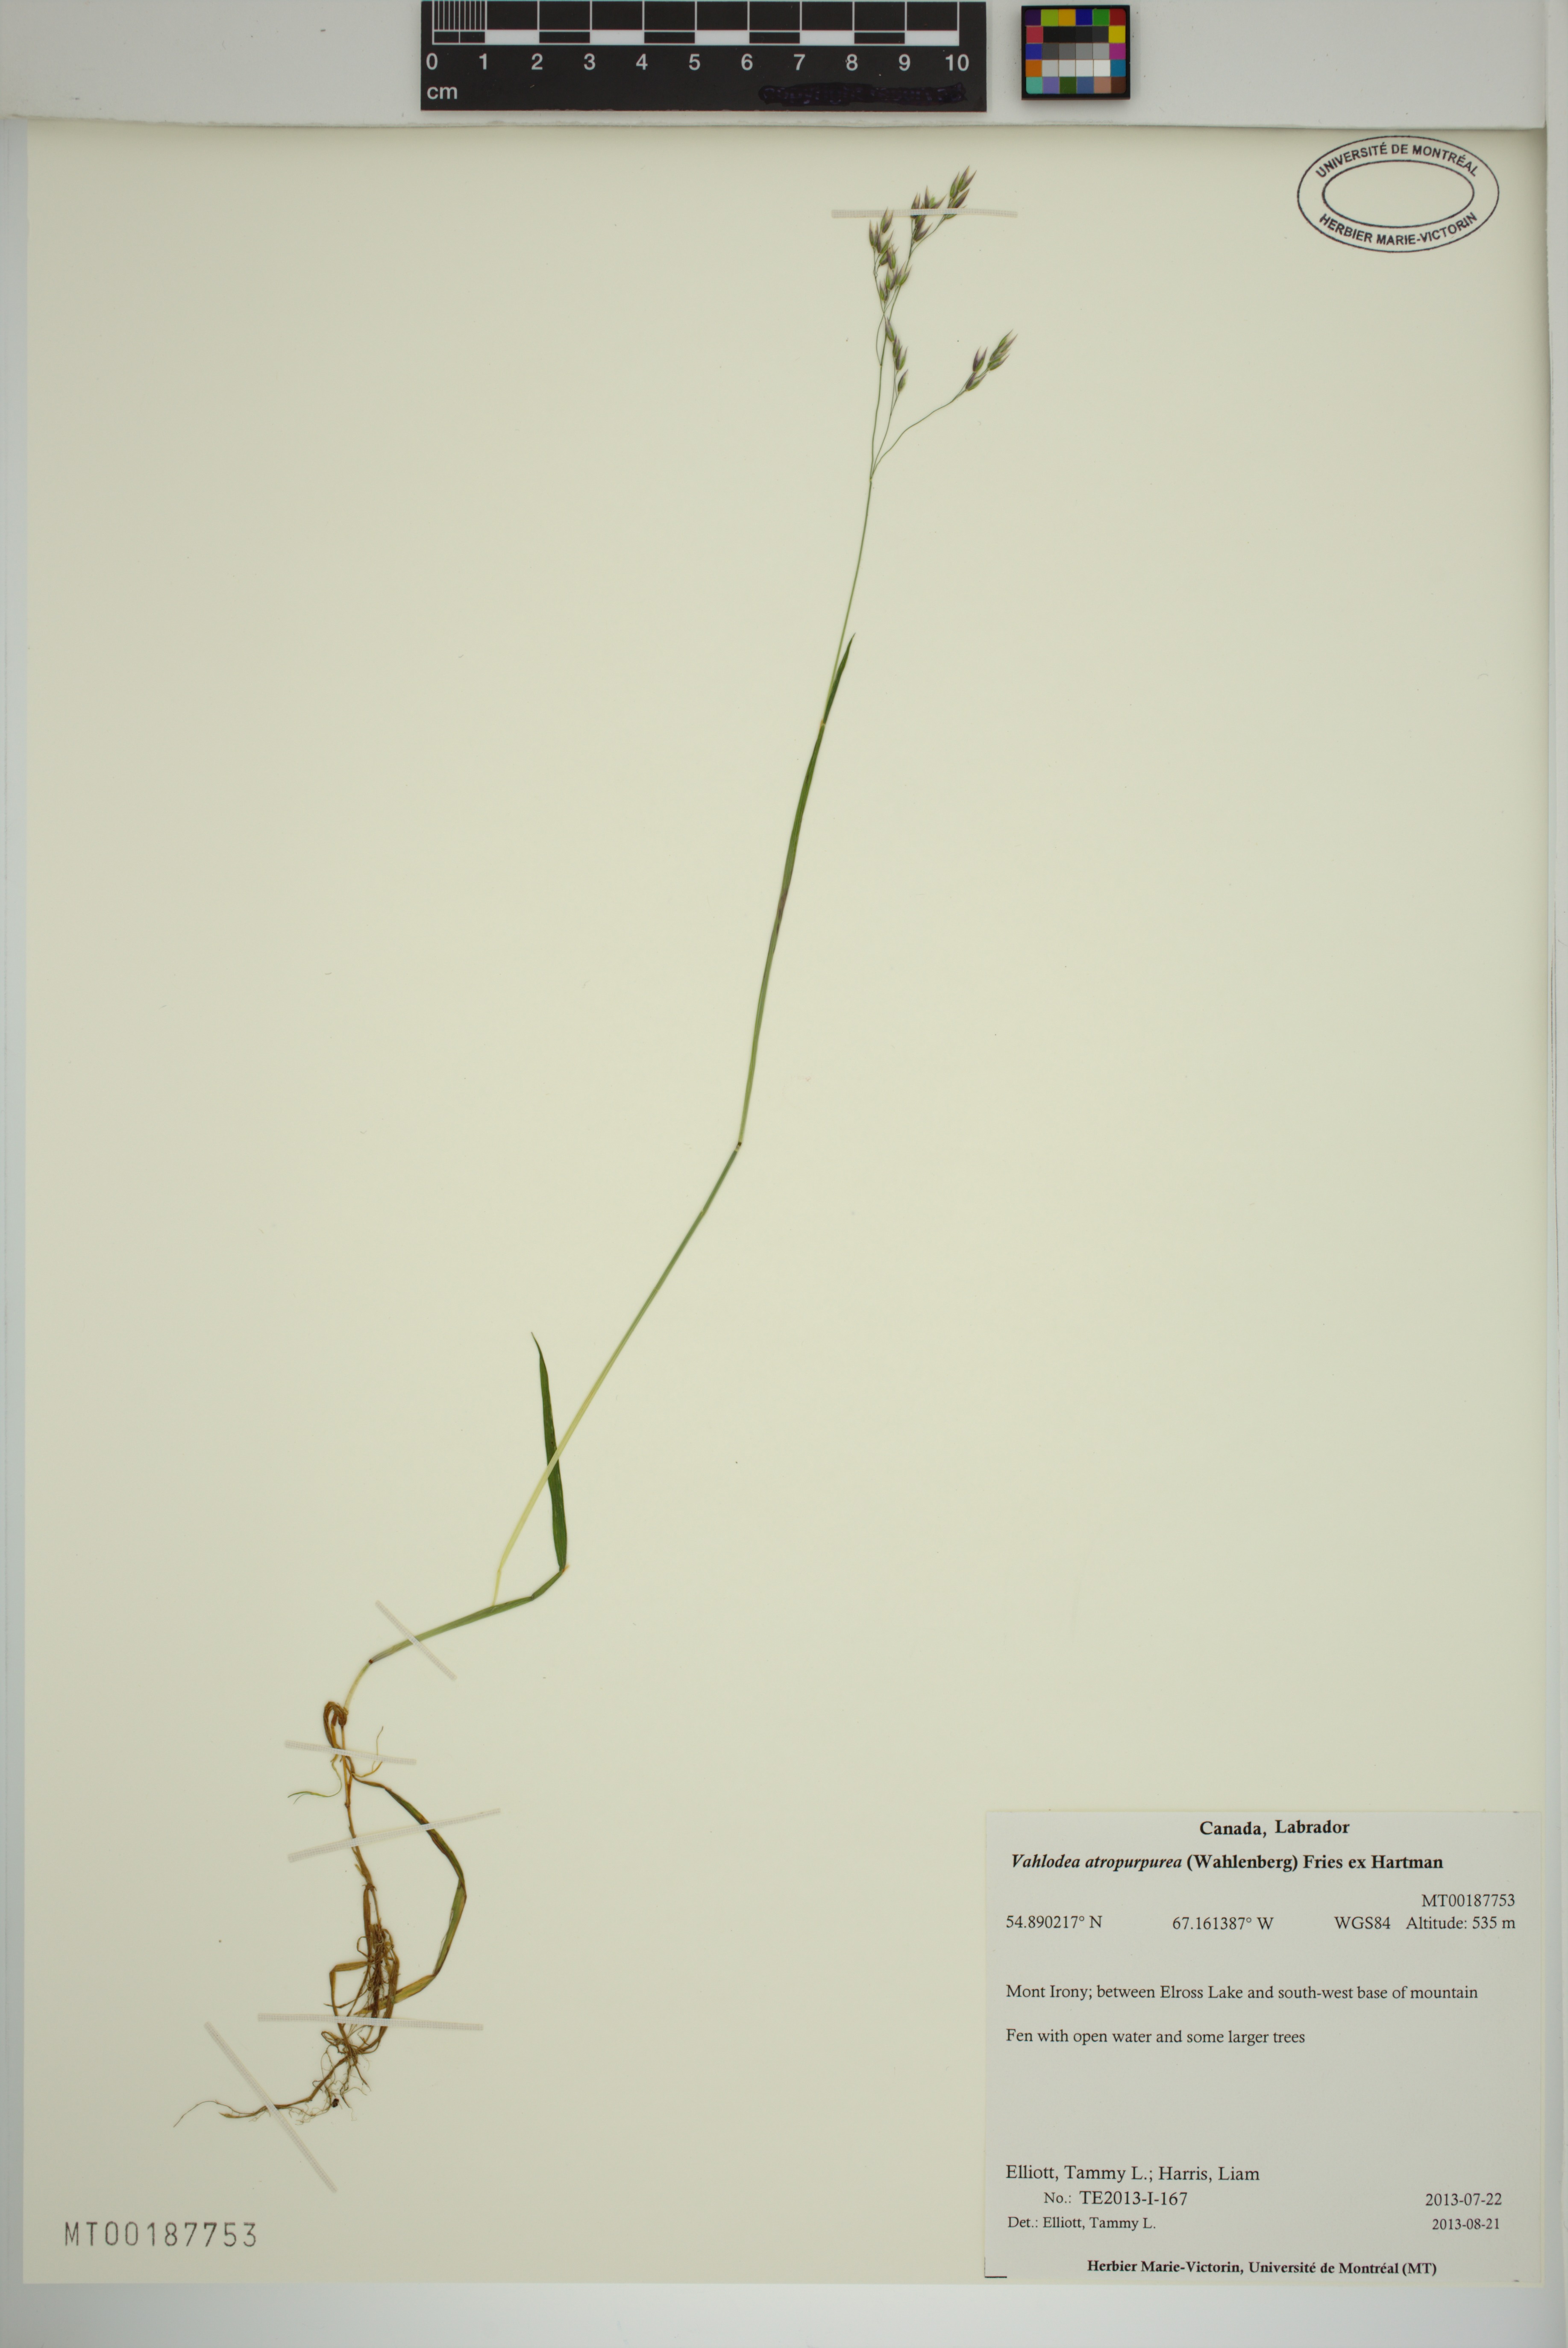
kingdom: Plantae
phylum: Tracheophyta
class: Liliopsida
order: Poales
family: Poaceae
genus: Vahlodea
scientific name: Vahlodea atropurpurea
